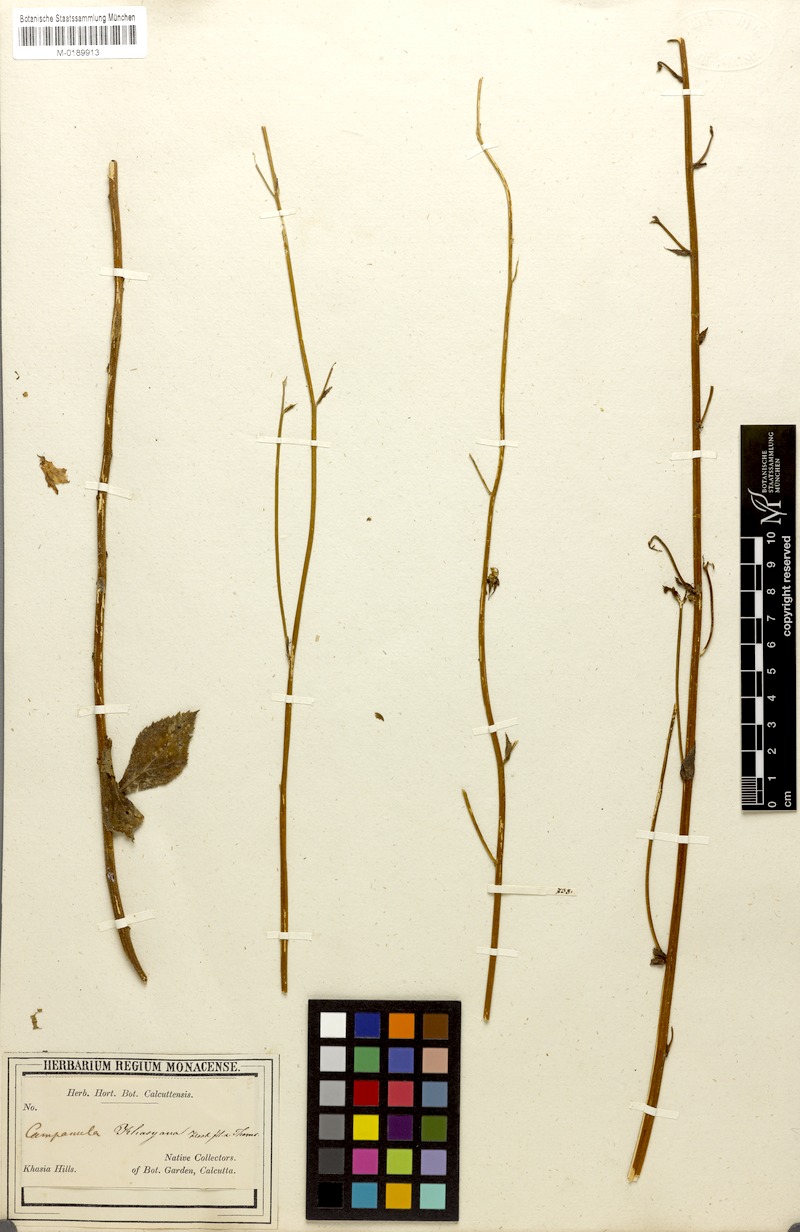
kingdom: Plantae
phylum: Tracheophyta
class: Magnoliopsida
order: Asterales
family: Campanulaceae
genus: Adenophora
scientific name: Adenophora khasiana
